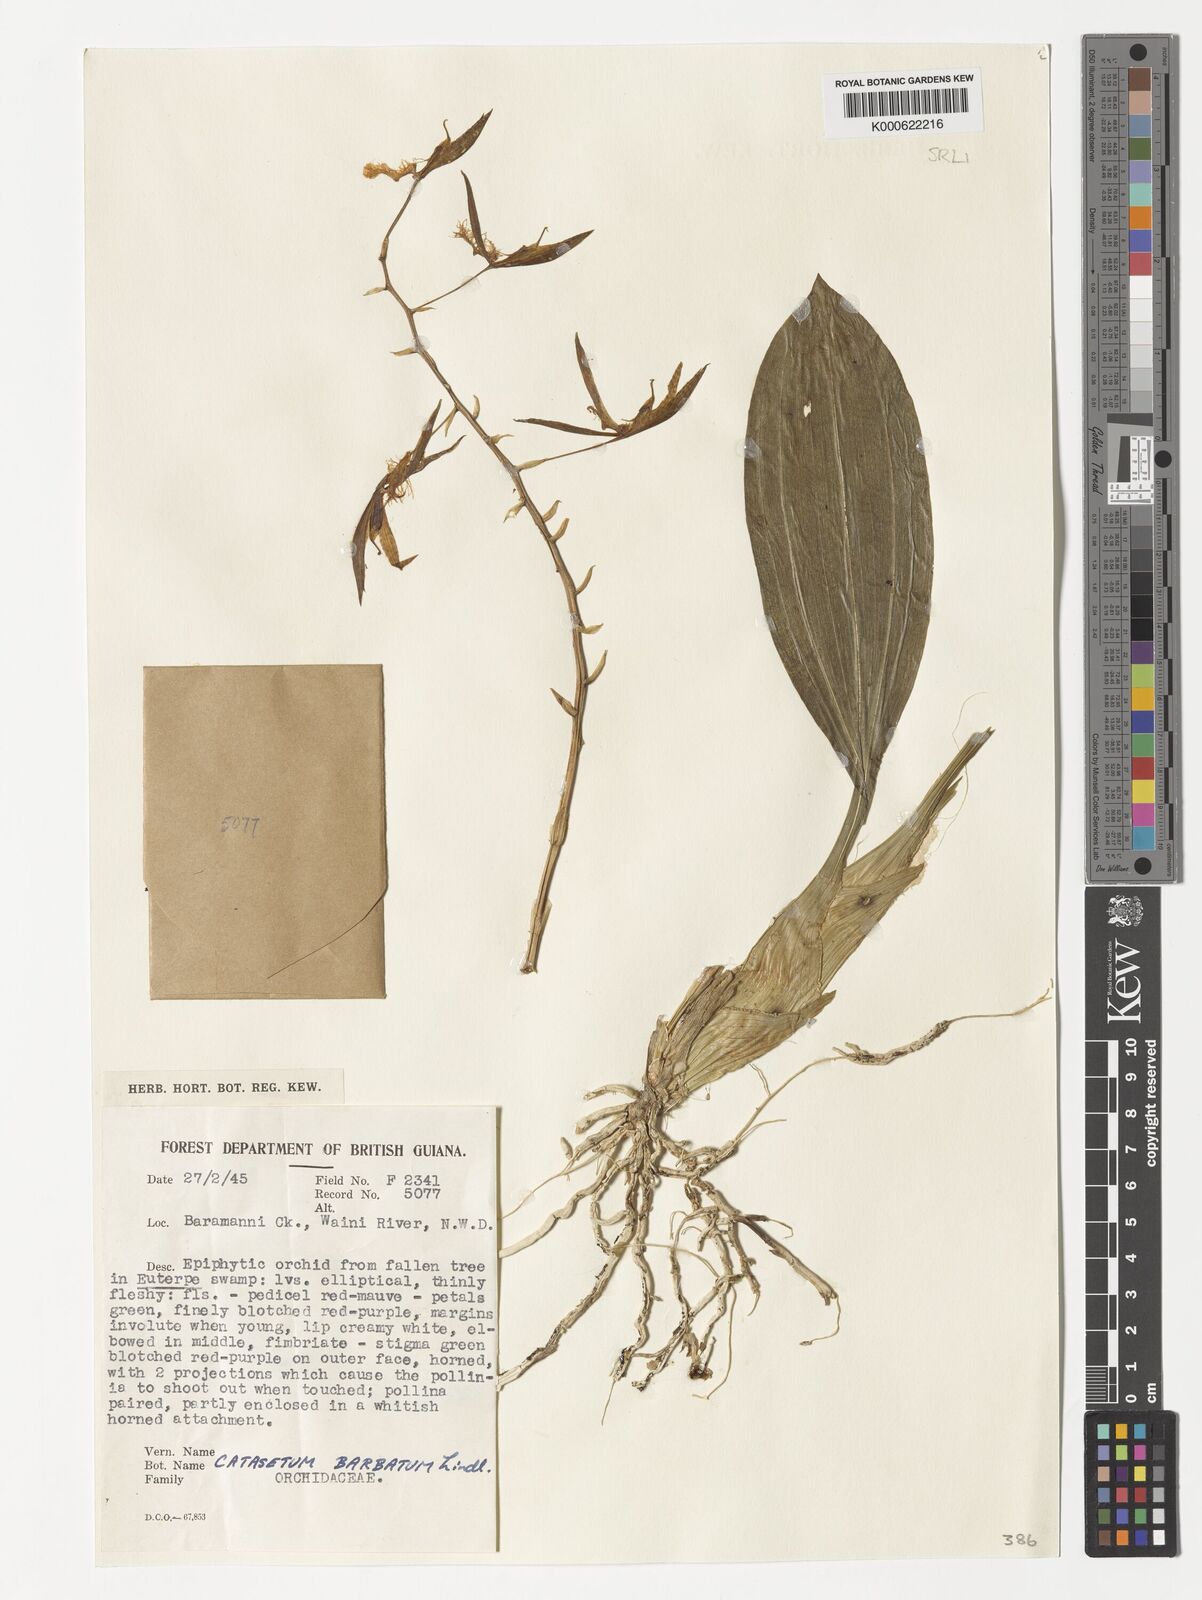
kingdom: Plantae
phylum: Tracheophyta
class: Liliopsida
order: Asparagales
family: Orchidaceae
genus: Catasetum
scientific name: Catasetum barbatum
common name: Bearded catasetum
